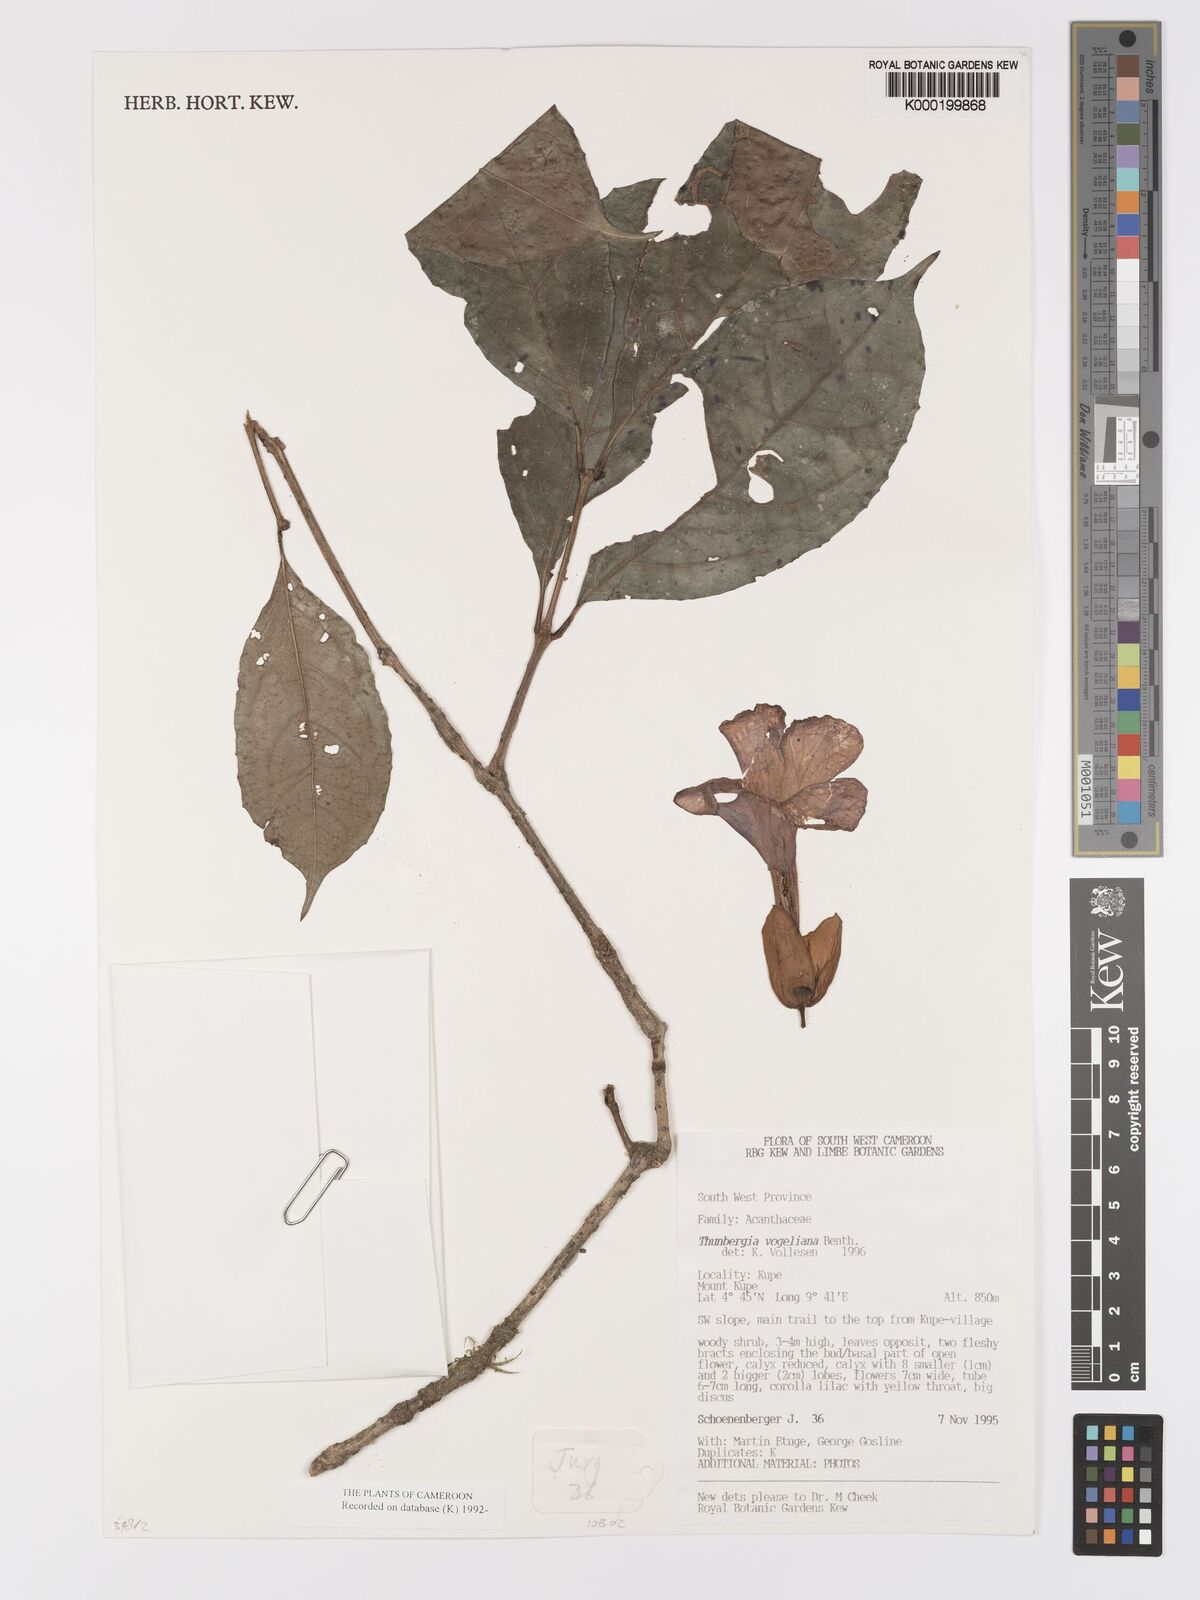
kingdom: Plantae
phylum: Tracheophyta
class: Magnoliopsida
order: Lamiales
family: Acanthaceae
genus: Thunbergia
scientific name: Thunbergia vogeliana
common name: Acanthaceae
